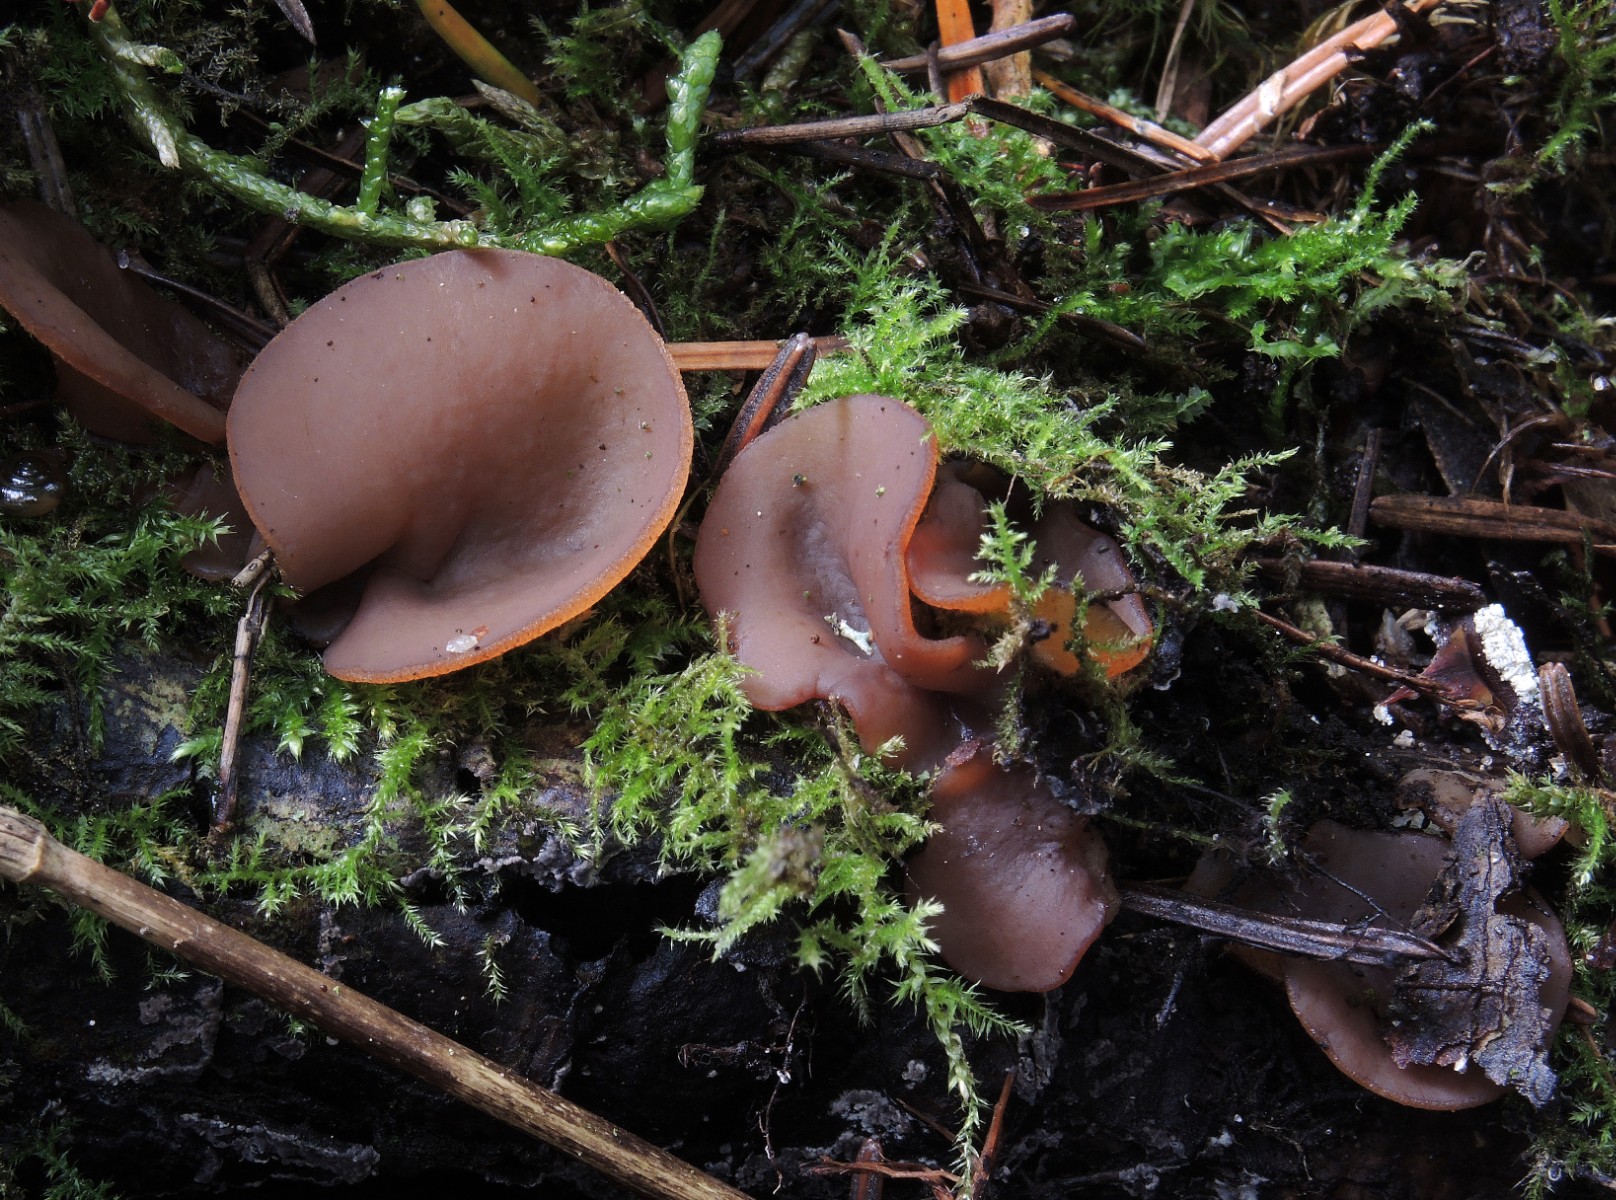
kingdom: Fungi
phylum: Ascomycota
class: Pezizomycetes
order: Pezizales
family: Pezizaceae
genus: Paragalactinia
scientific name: Paragalactinia michelii
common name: gulkødet bægersvamp
